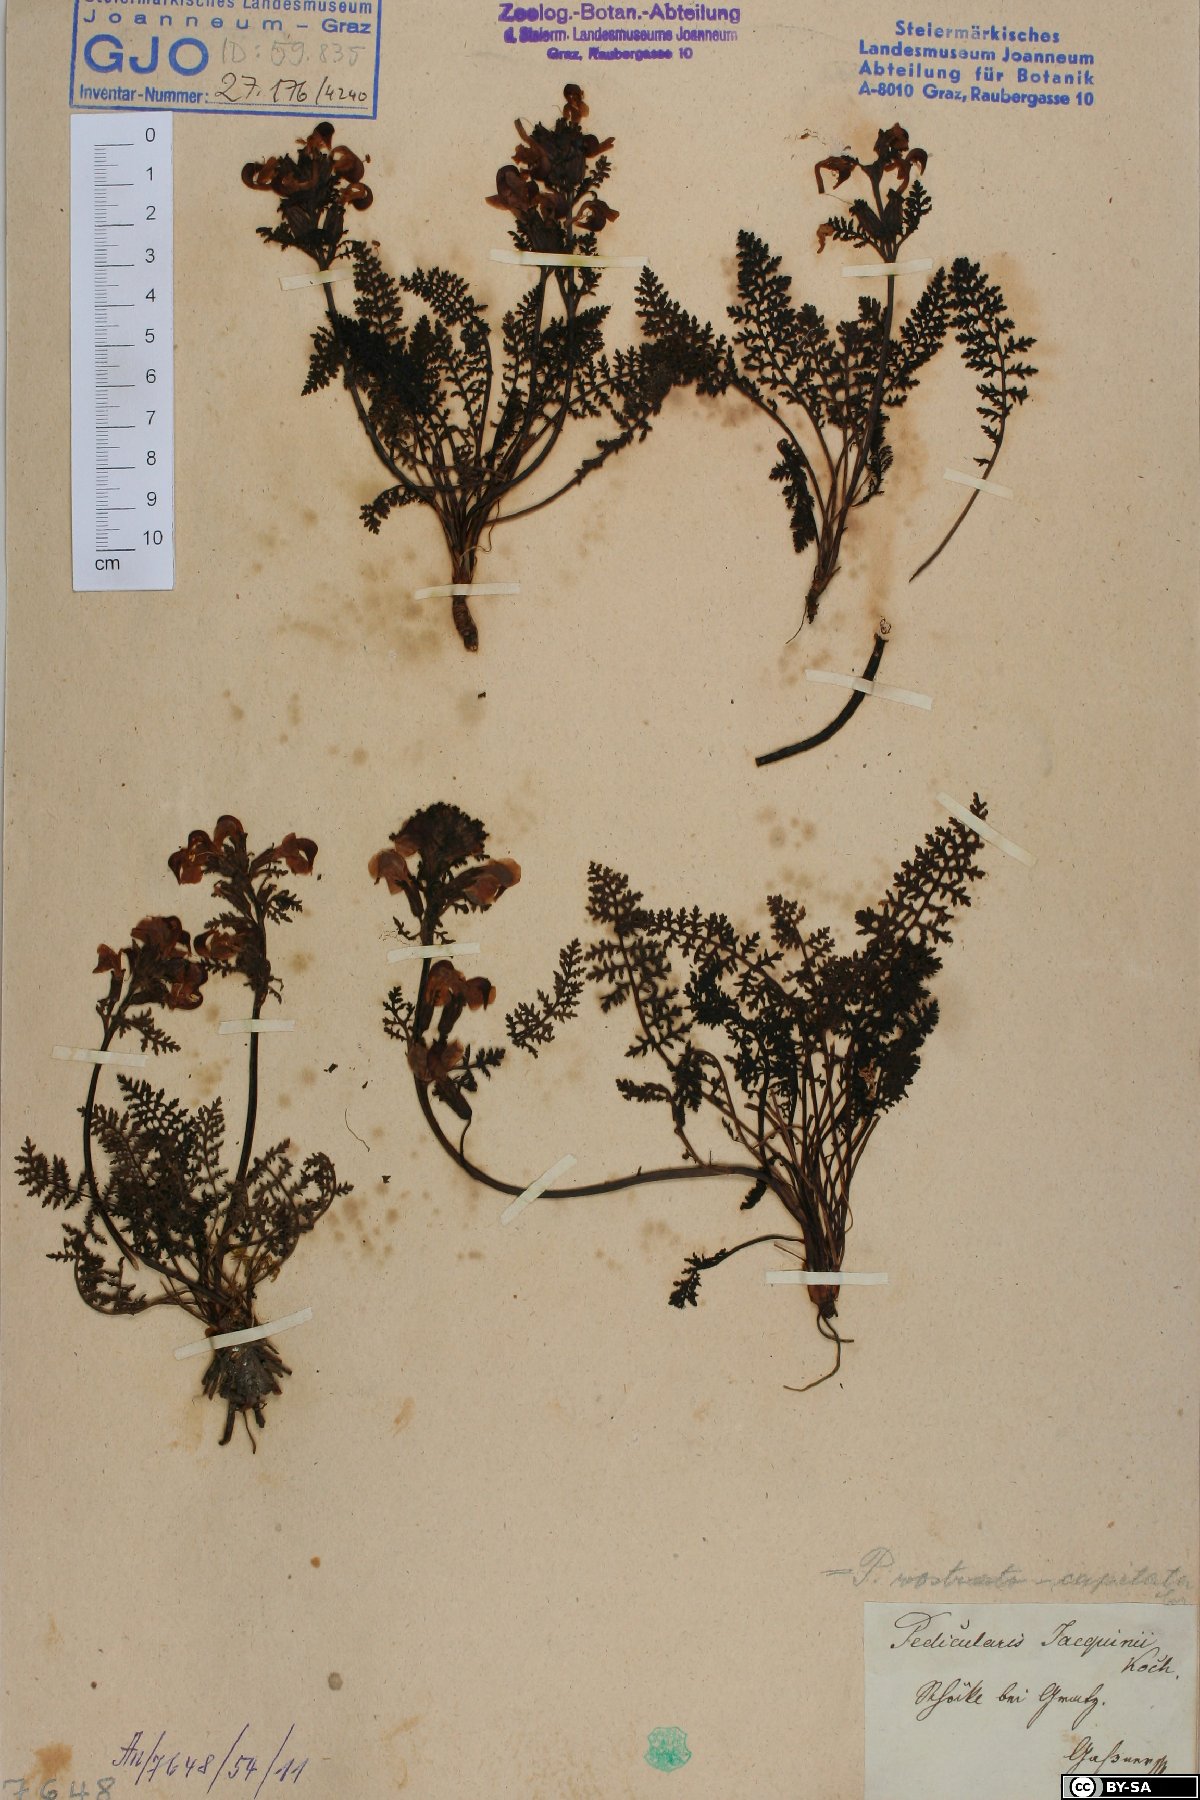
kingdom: Plantae
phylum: Tracheophyta
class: Magnoliopsida
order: Lamiales
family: Orobanchaceae
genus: Pedicularis
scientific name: Pedicularis rostratocapitata
